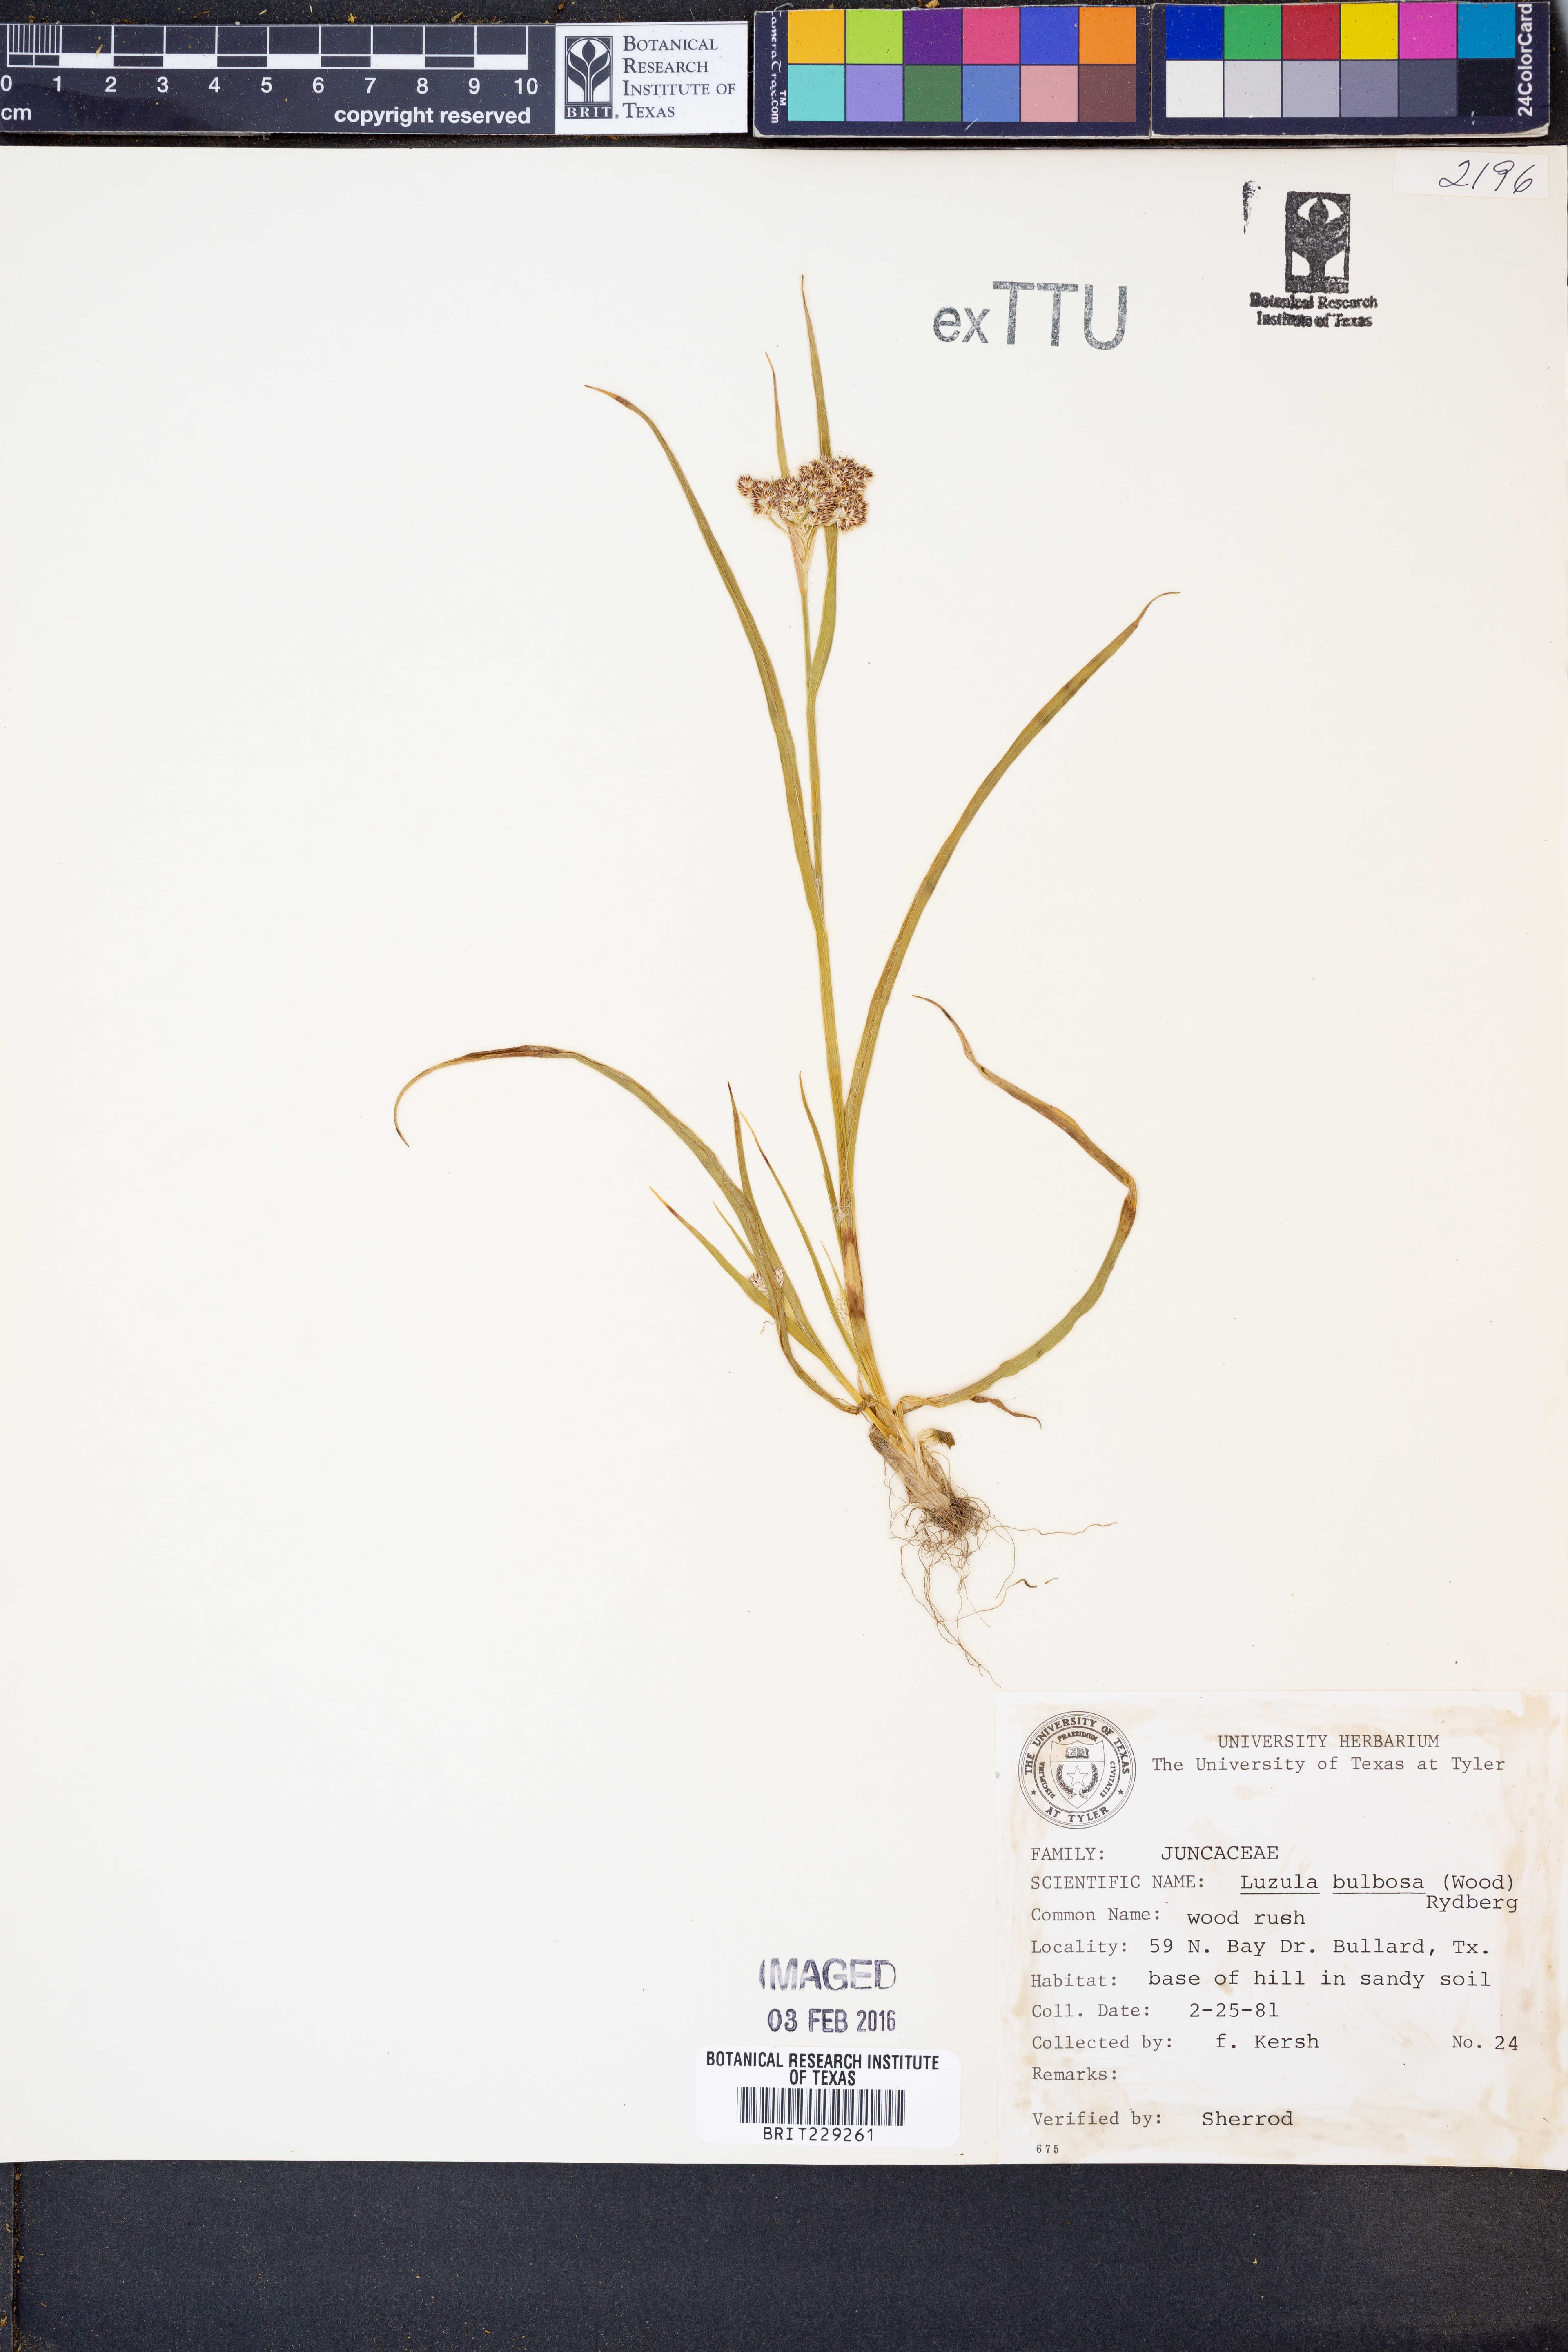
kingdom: Plantae
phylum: Tracheophyta
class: Liliopsida
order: Poales
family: Juncaceae
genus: Luzula
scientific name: Luzula bulbosa
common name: Bulbous woodrush
